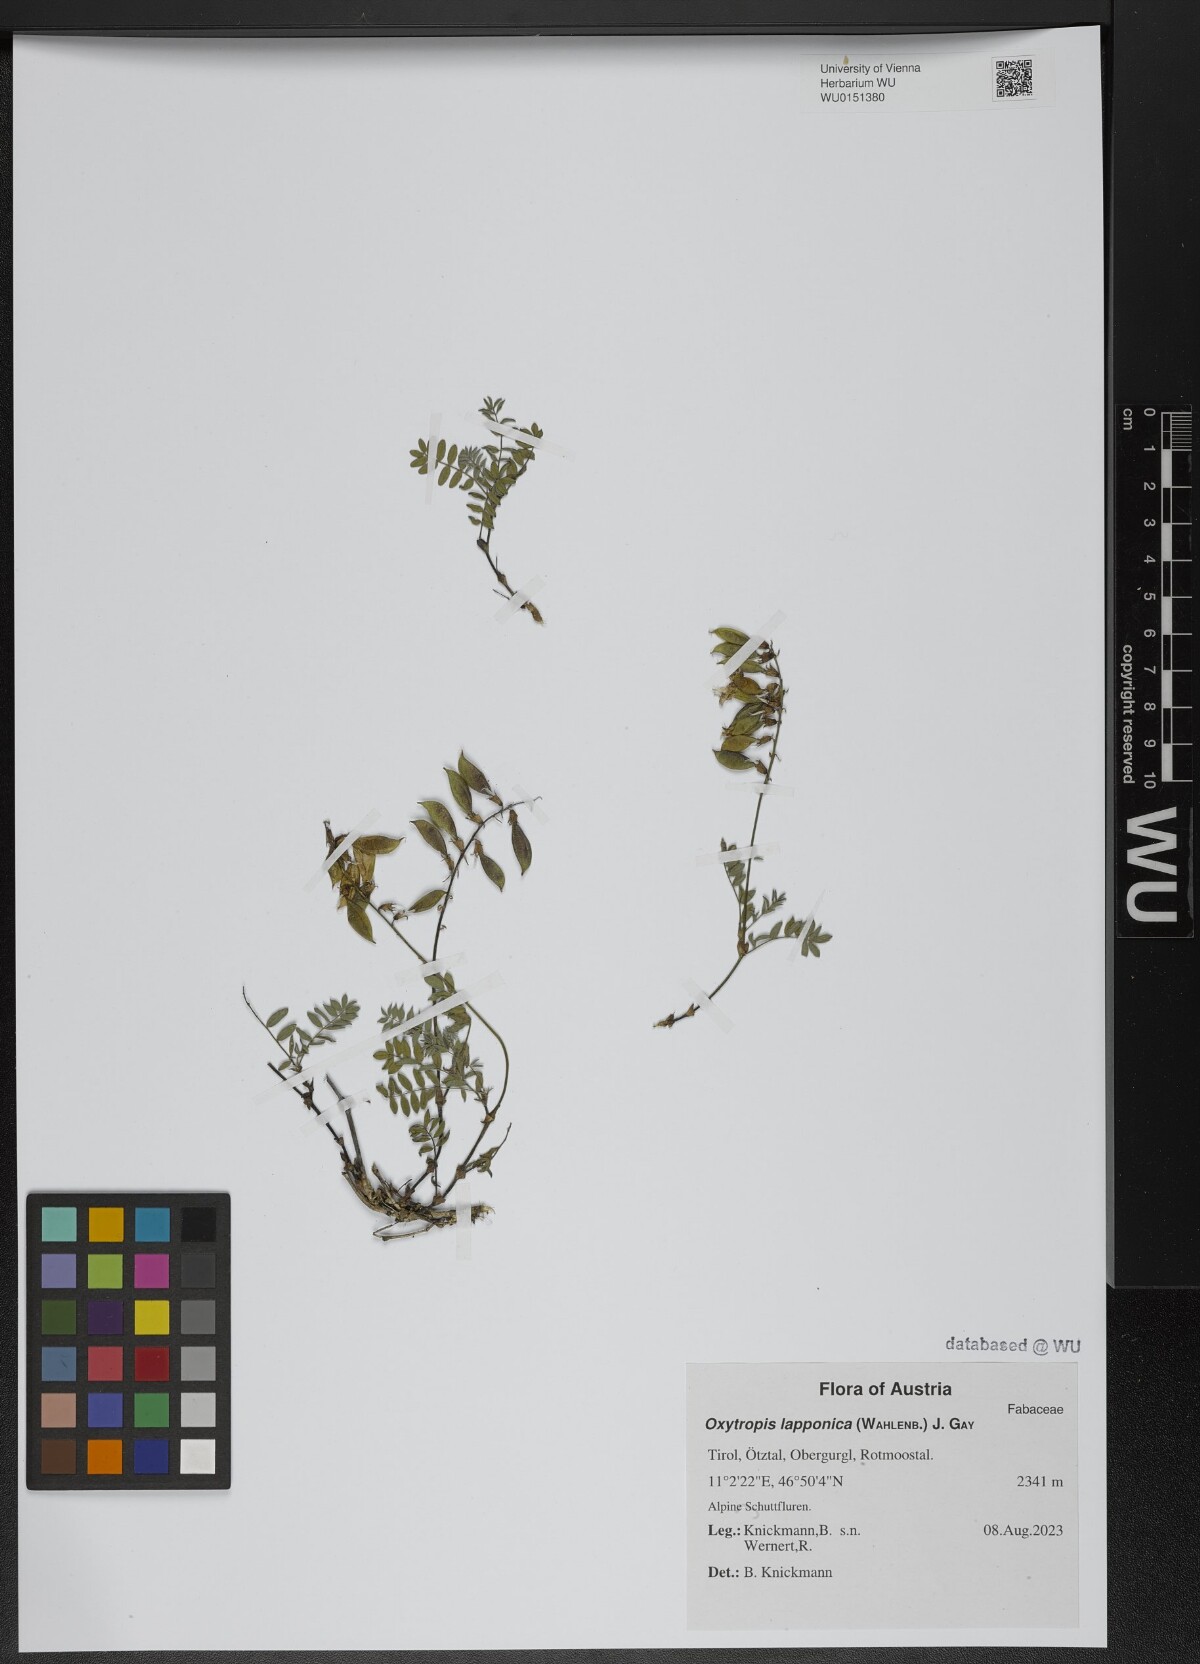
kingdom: Plantae
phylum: Tracheophyta
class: Magnoliopsida
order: Fabales
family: Fabaceae
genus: Oxytropis
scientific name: Oxytropis lapponica
